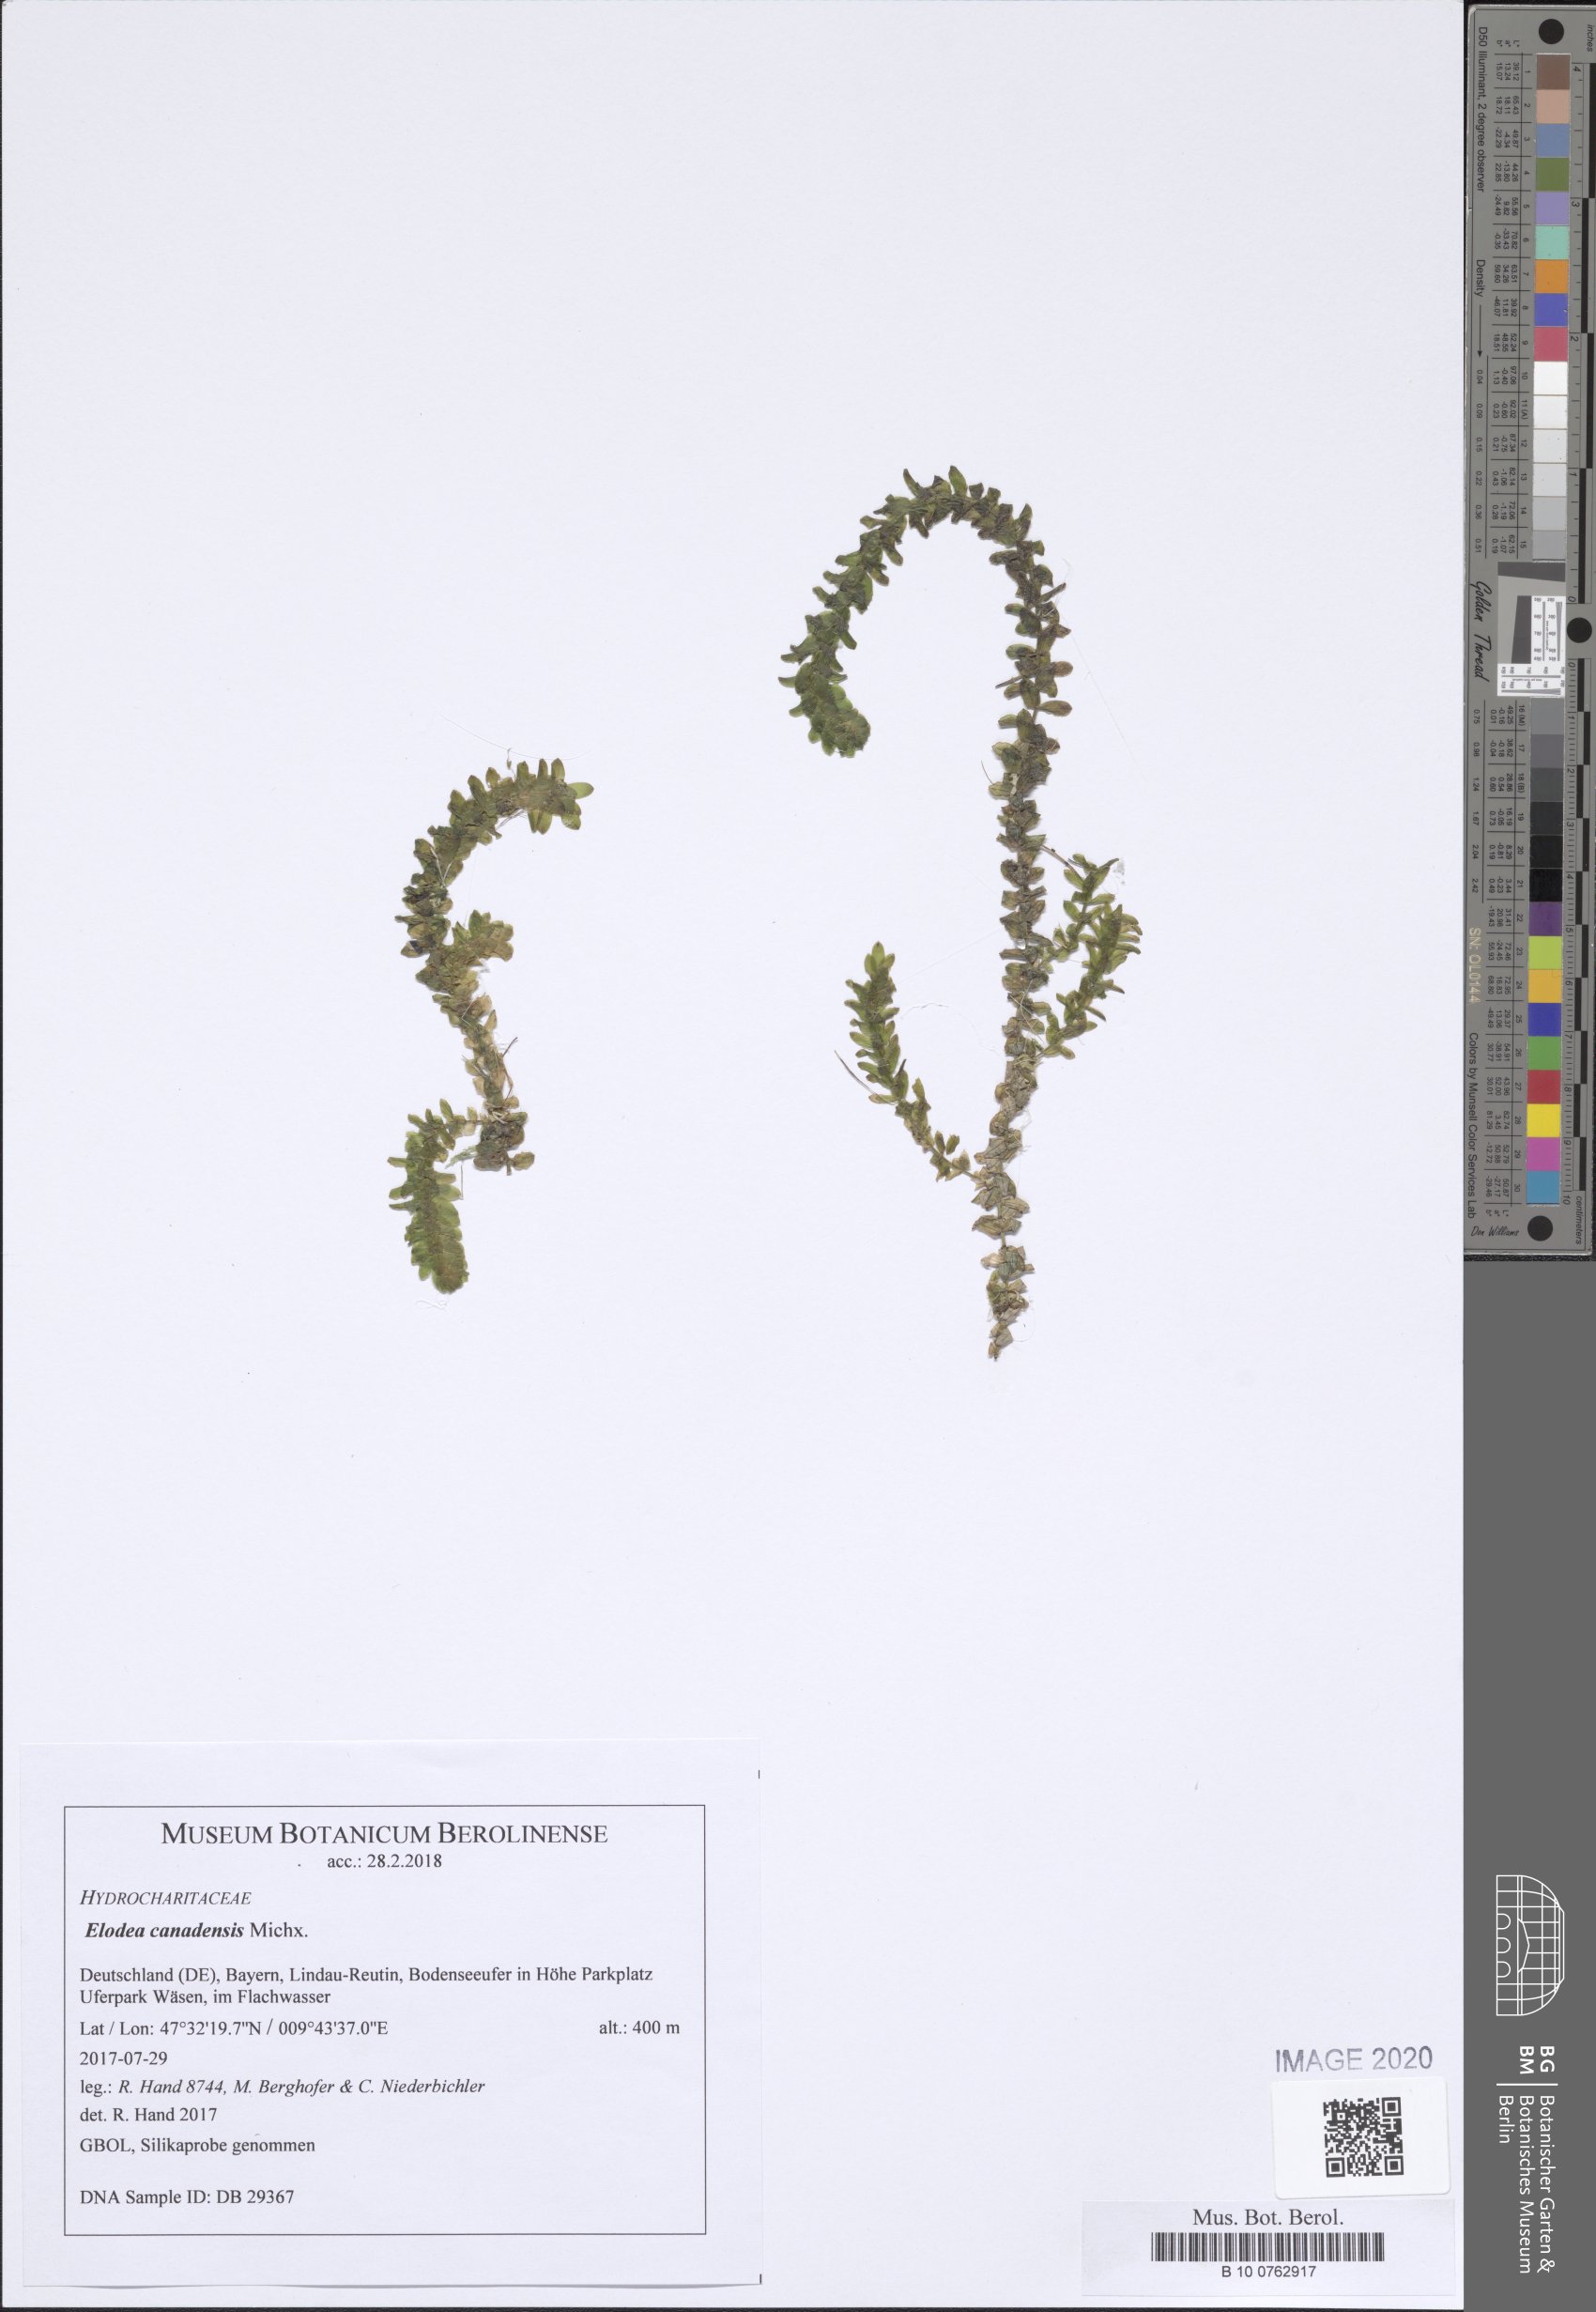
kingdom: Plantae
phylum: Tracheophyta
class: Liliopsida
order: Alismatales
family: Hydrocharitaceae
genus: Elodea
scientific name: Elodea canadensis
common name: Canadian waterweed
